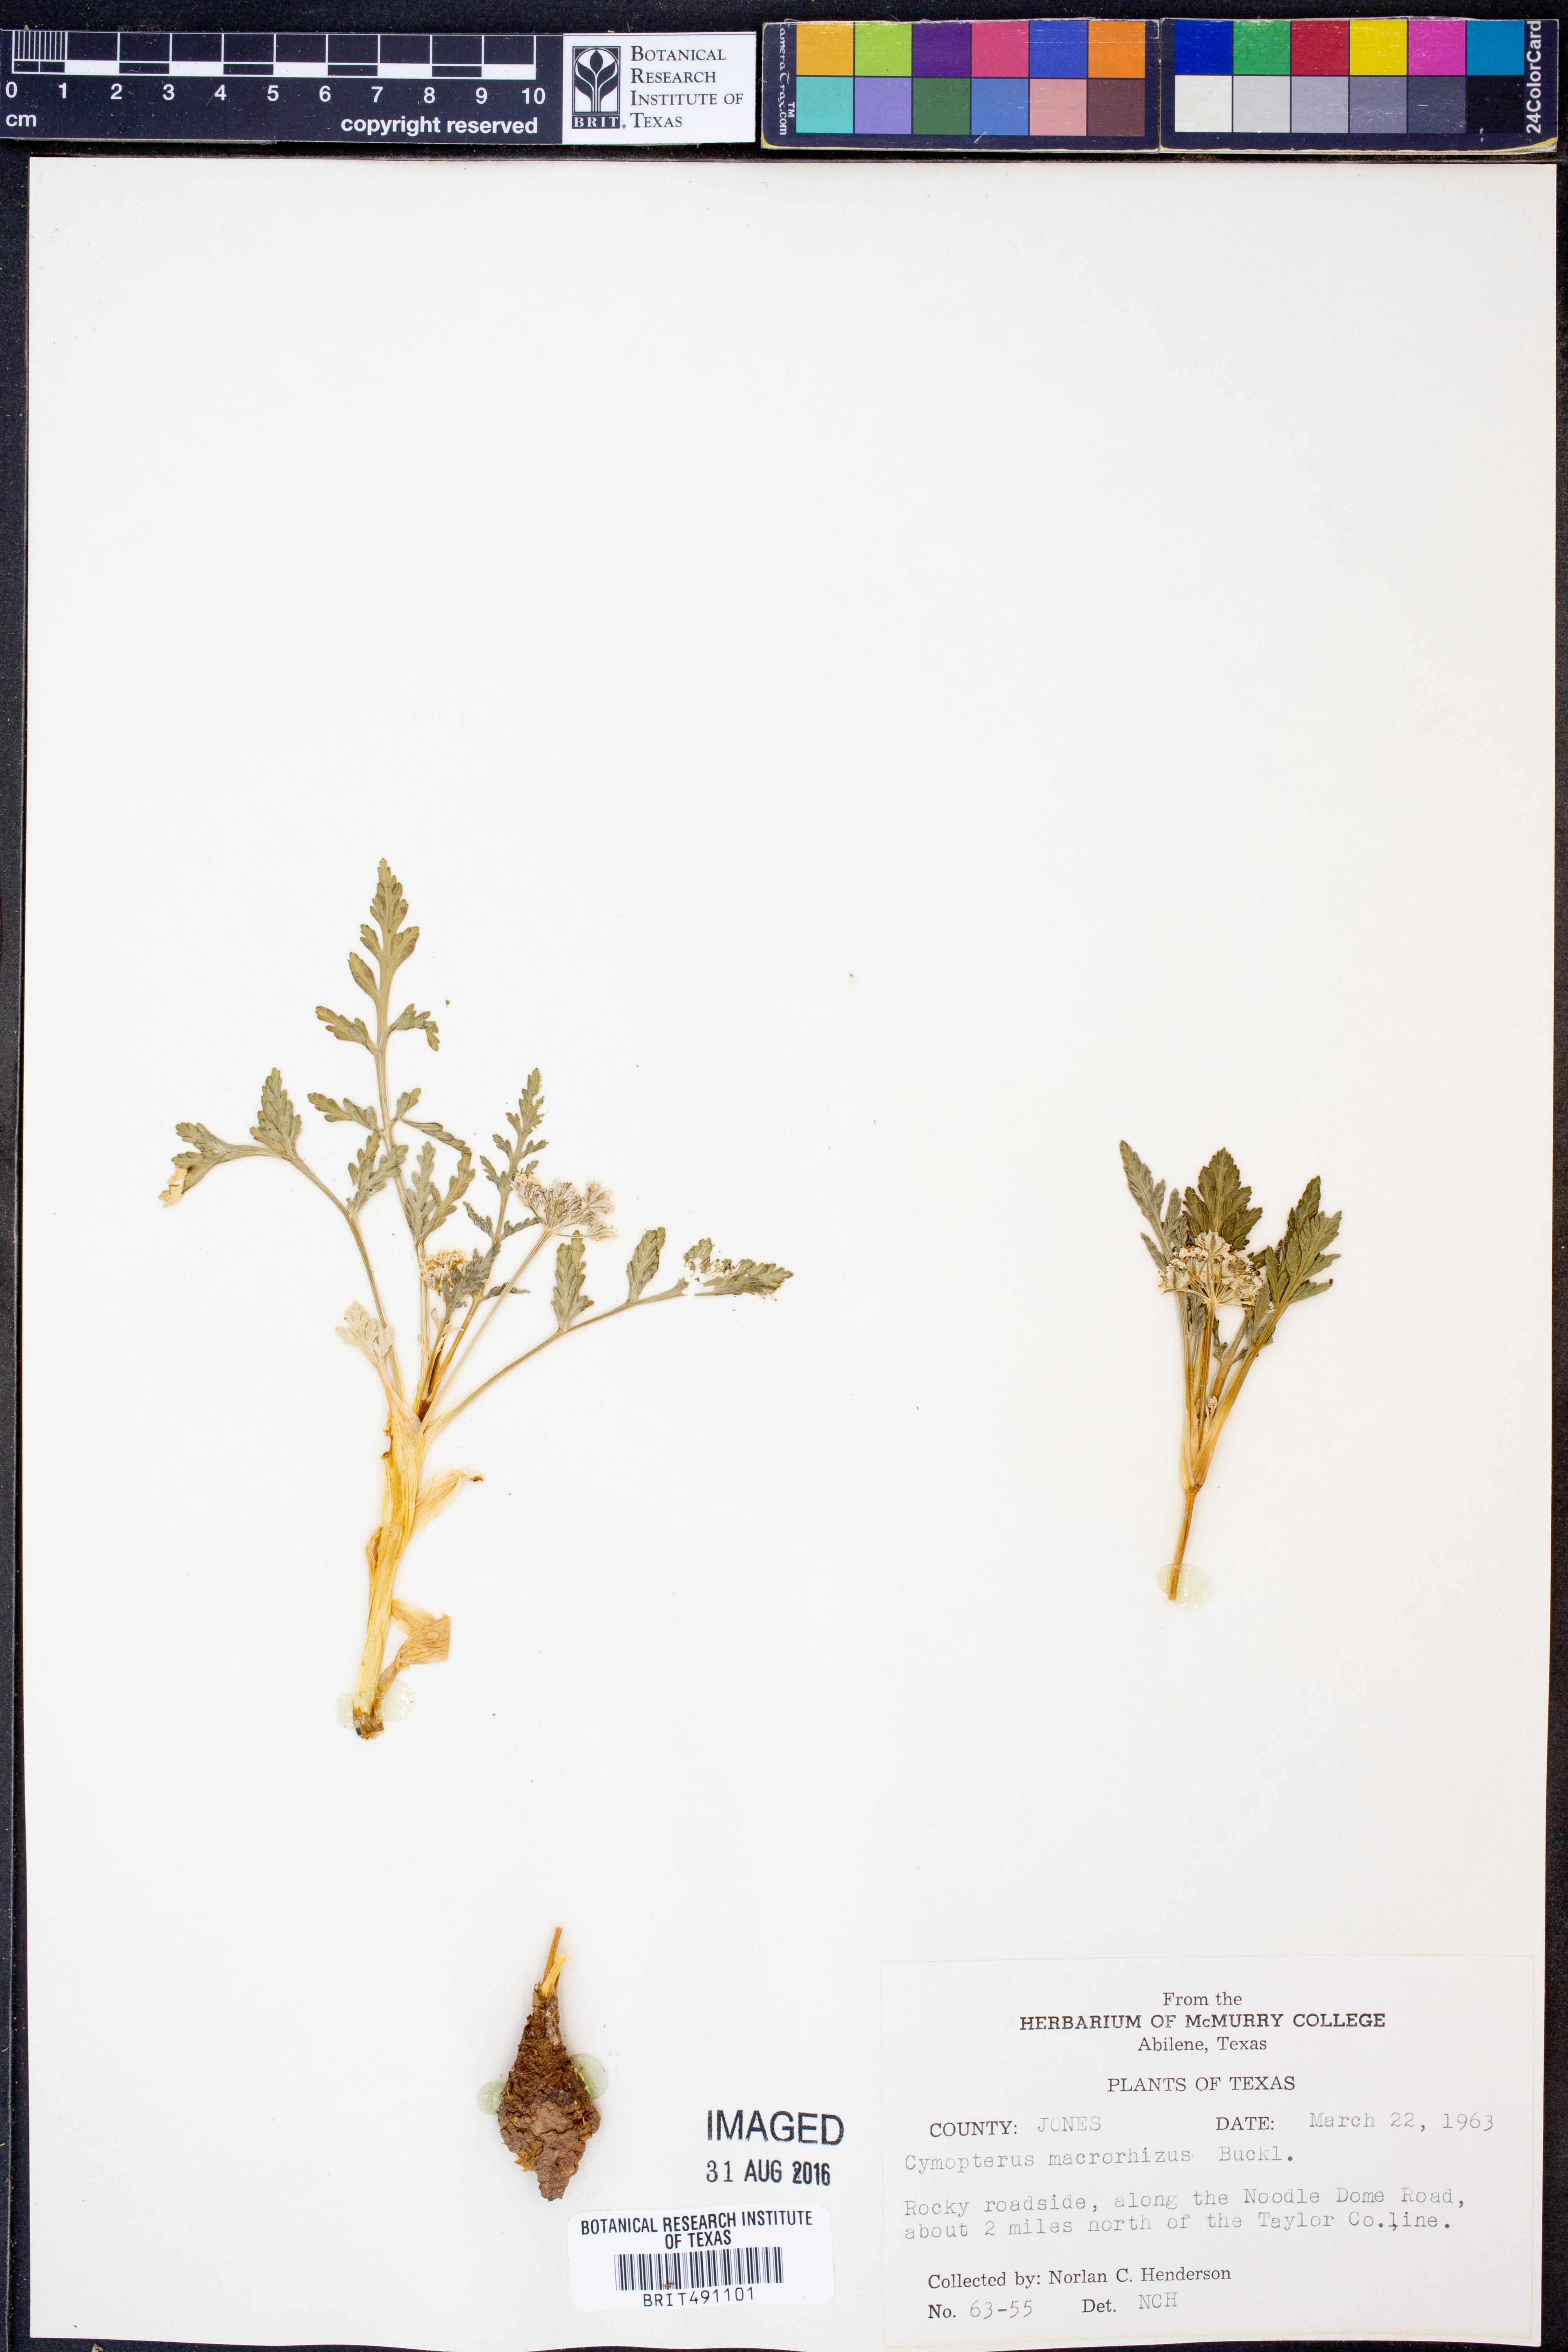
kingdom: Plantae
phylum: Tracheophyta
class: Magnoliopsida
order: Apiales
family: Apiaceae
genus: Vesper
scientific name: Vesper macrorhizus
